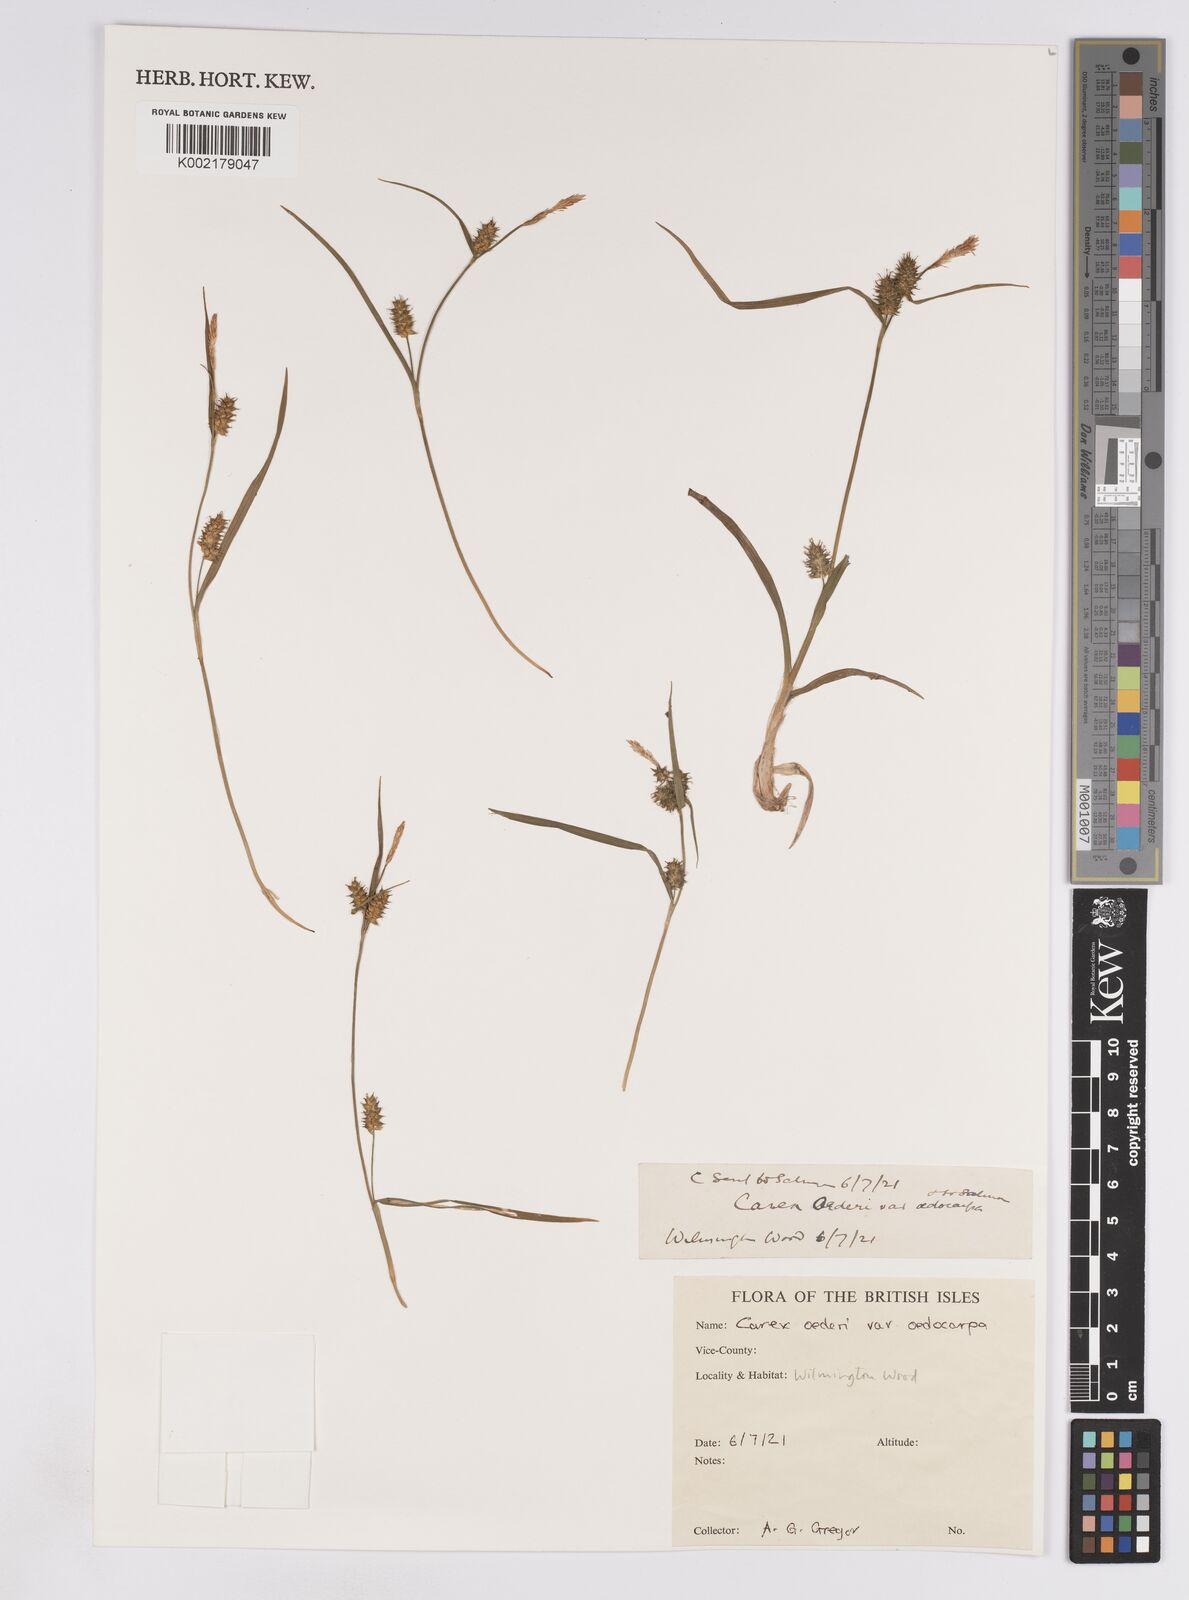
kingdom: Plantae
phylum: Tracheophyta
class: Liliopsida
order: Poales
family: Cyperaceae
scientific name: Cyperaceae
